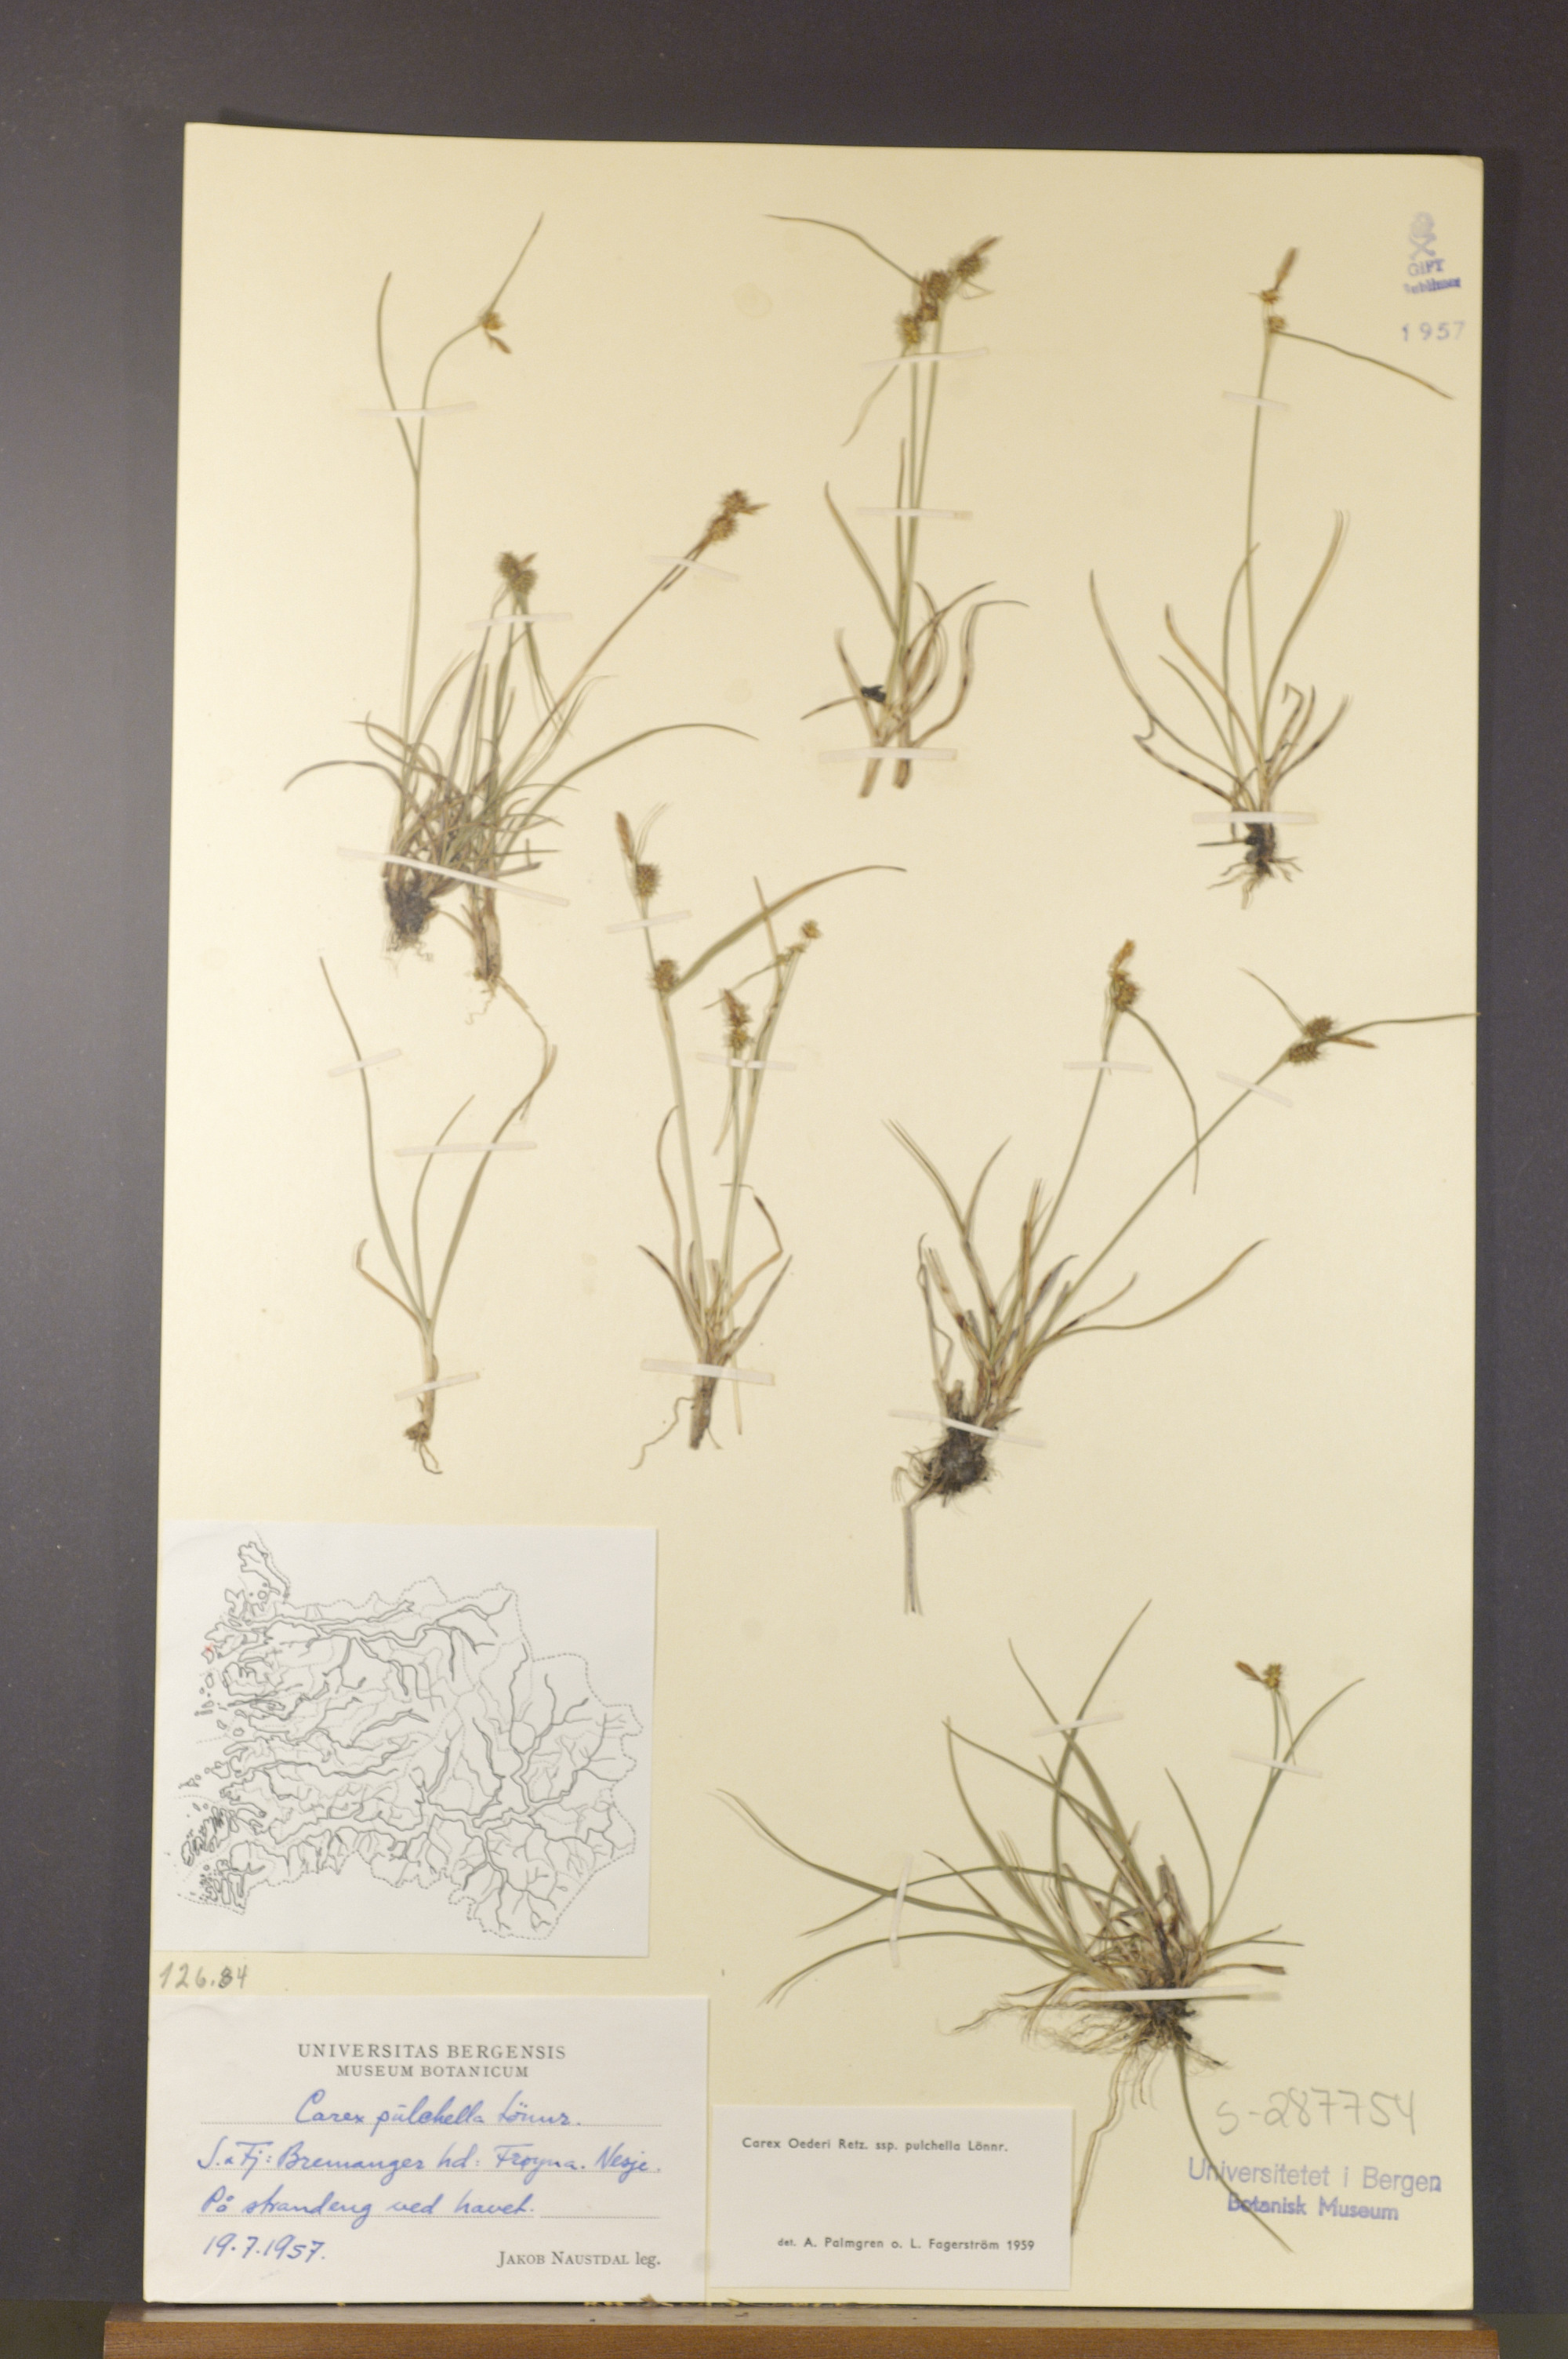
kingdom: Plantae
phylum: Tracheophyta
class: Liliopsida
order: Poales
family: Cyperaceae
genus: Carex
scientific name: Carex oederi
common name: Common & small-fruited yellow-sedge
